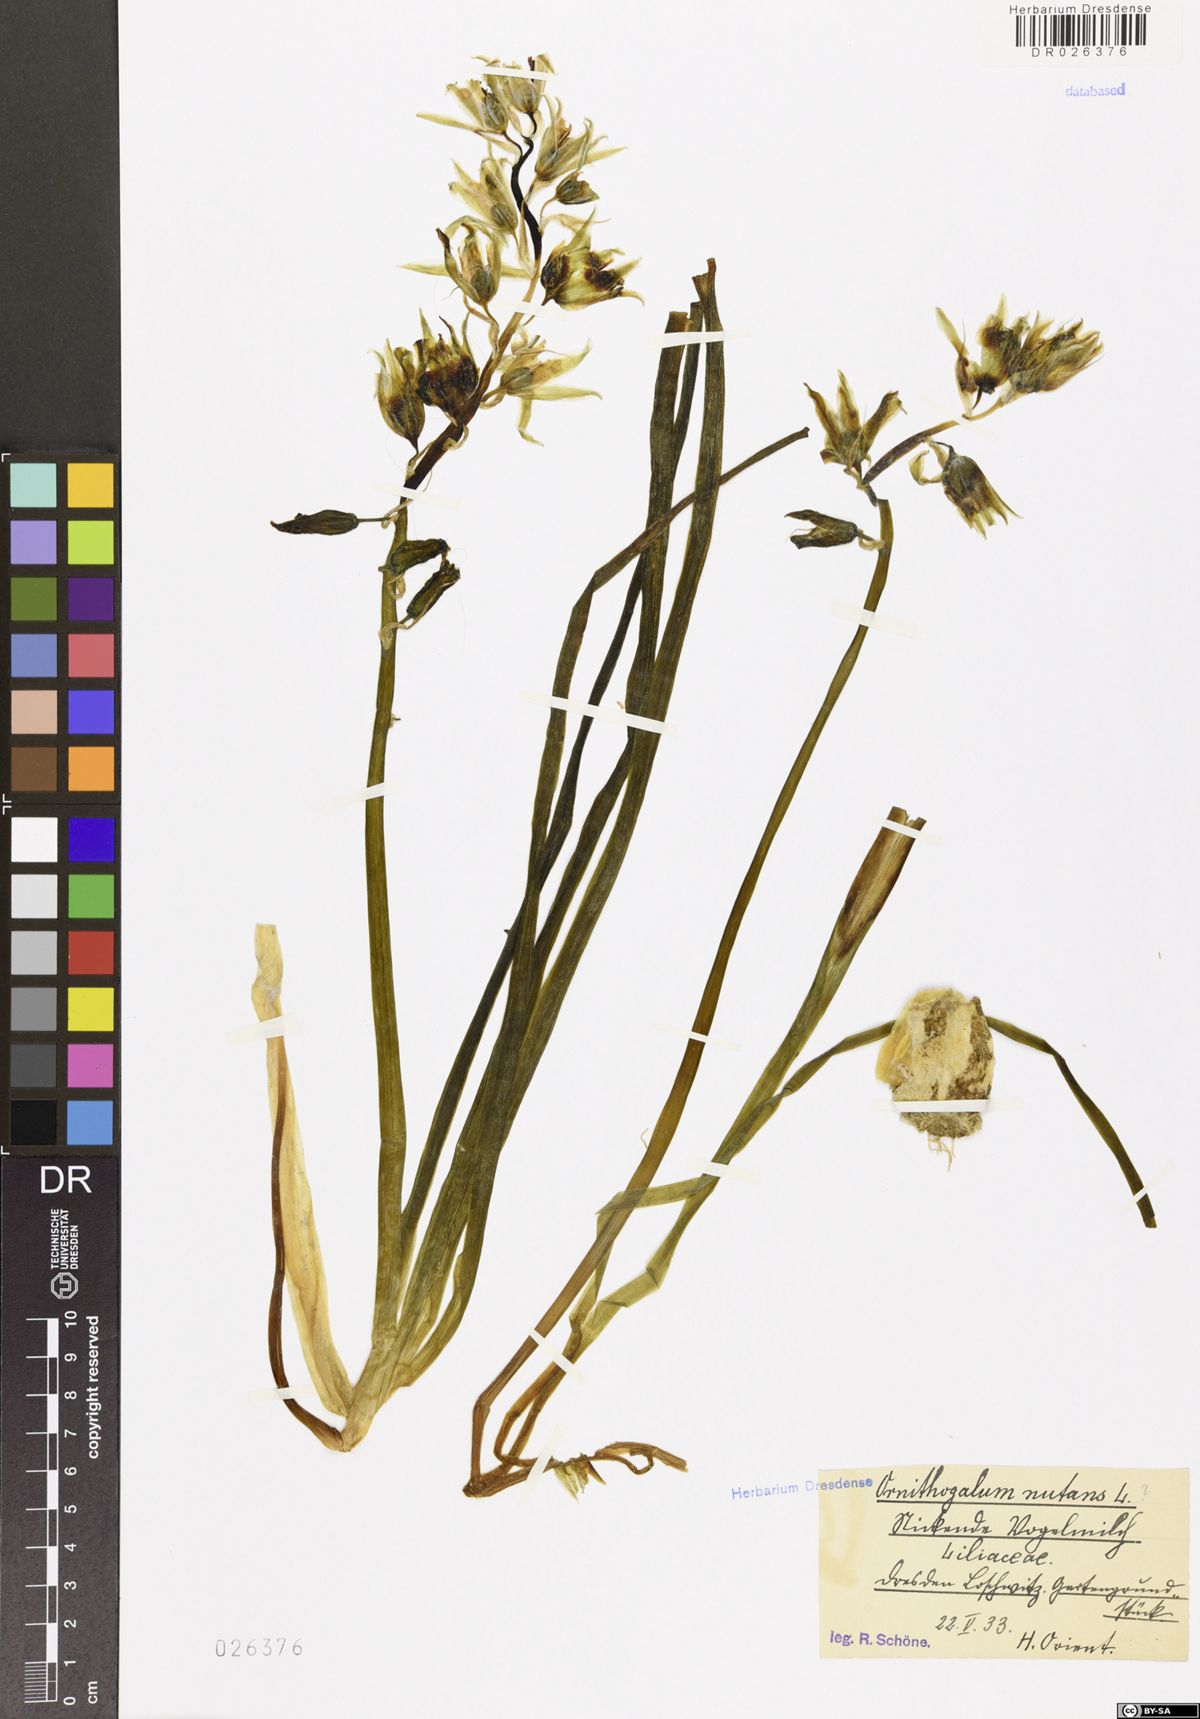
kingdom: Plantae
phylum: Tracheophyta
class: Liliopsida
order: Asparagales
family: Asparagaceae
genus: Ornithogalum
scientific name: Ornithogalum nutans
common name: Drooping star-of-bethlehem
